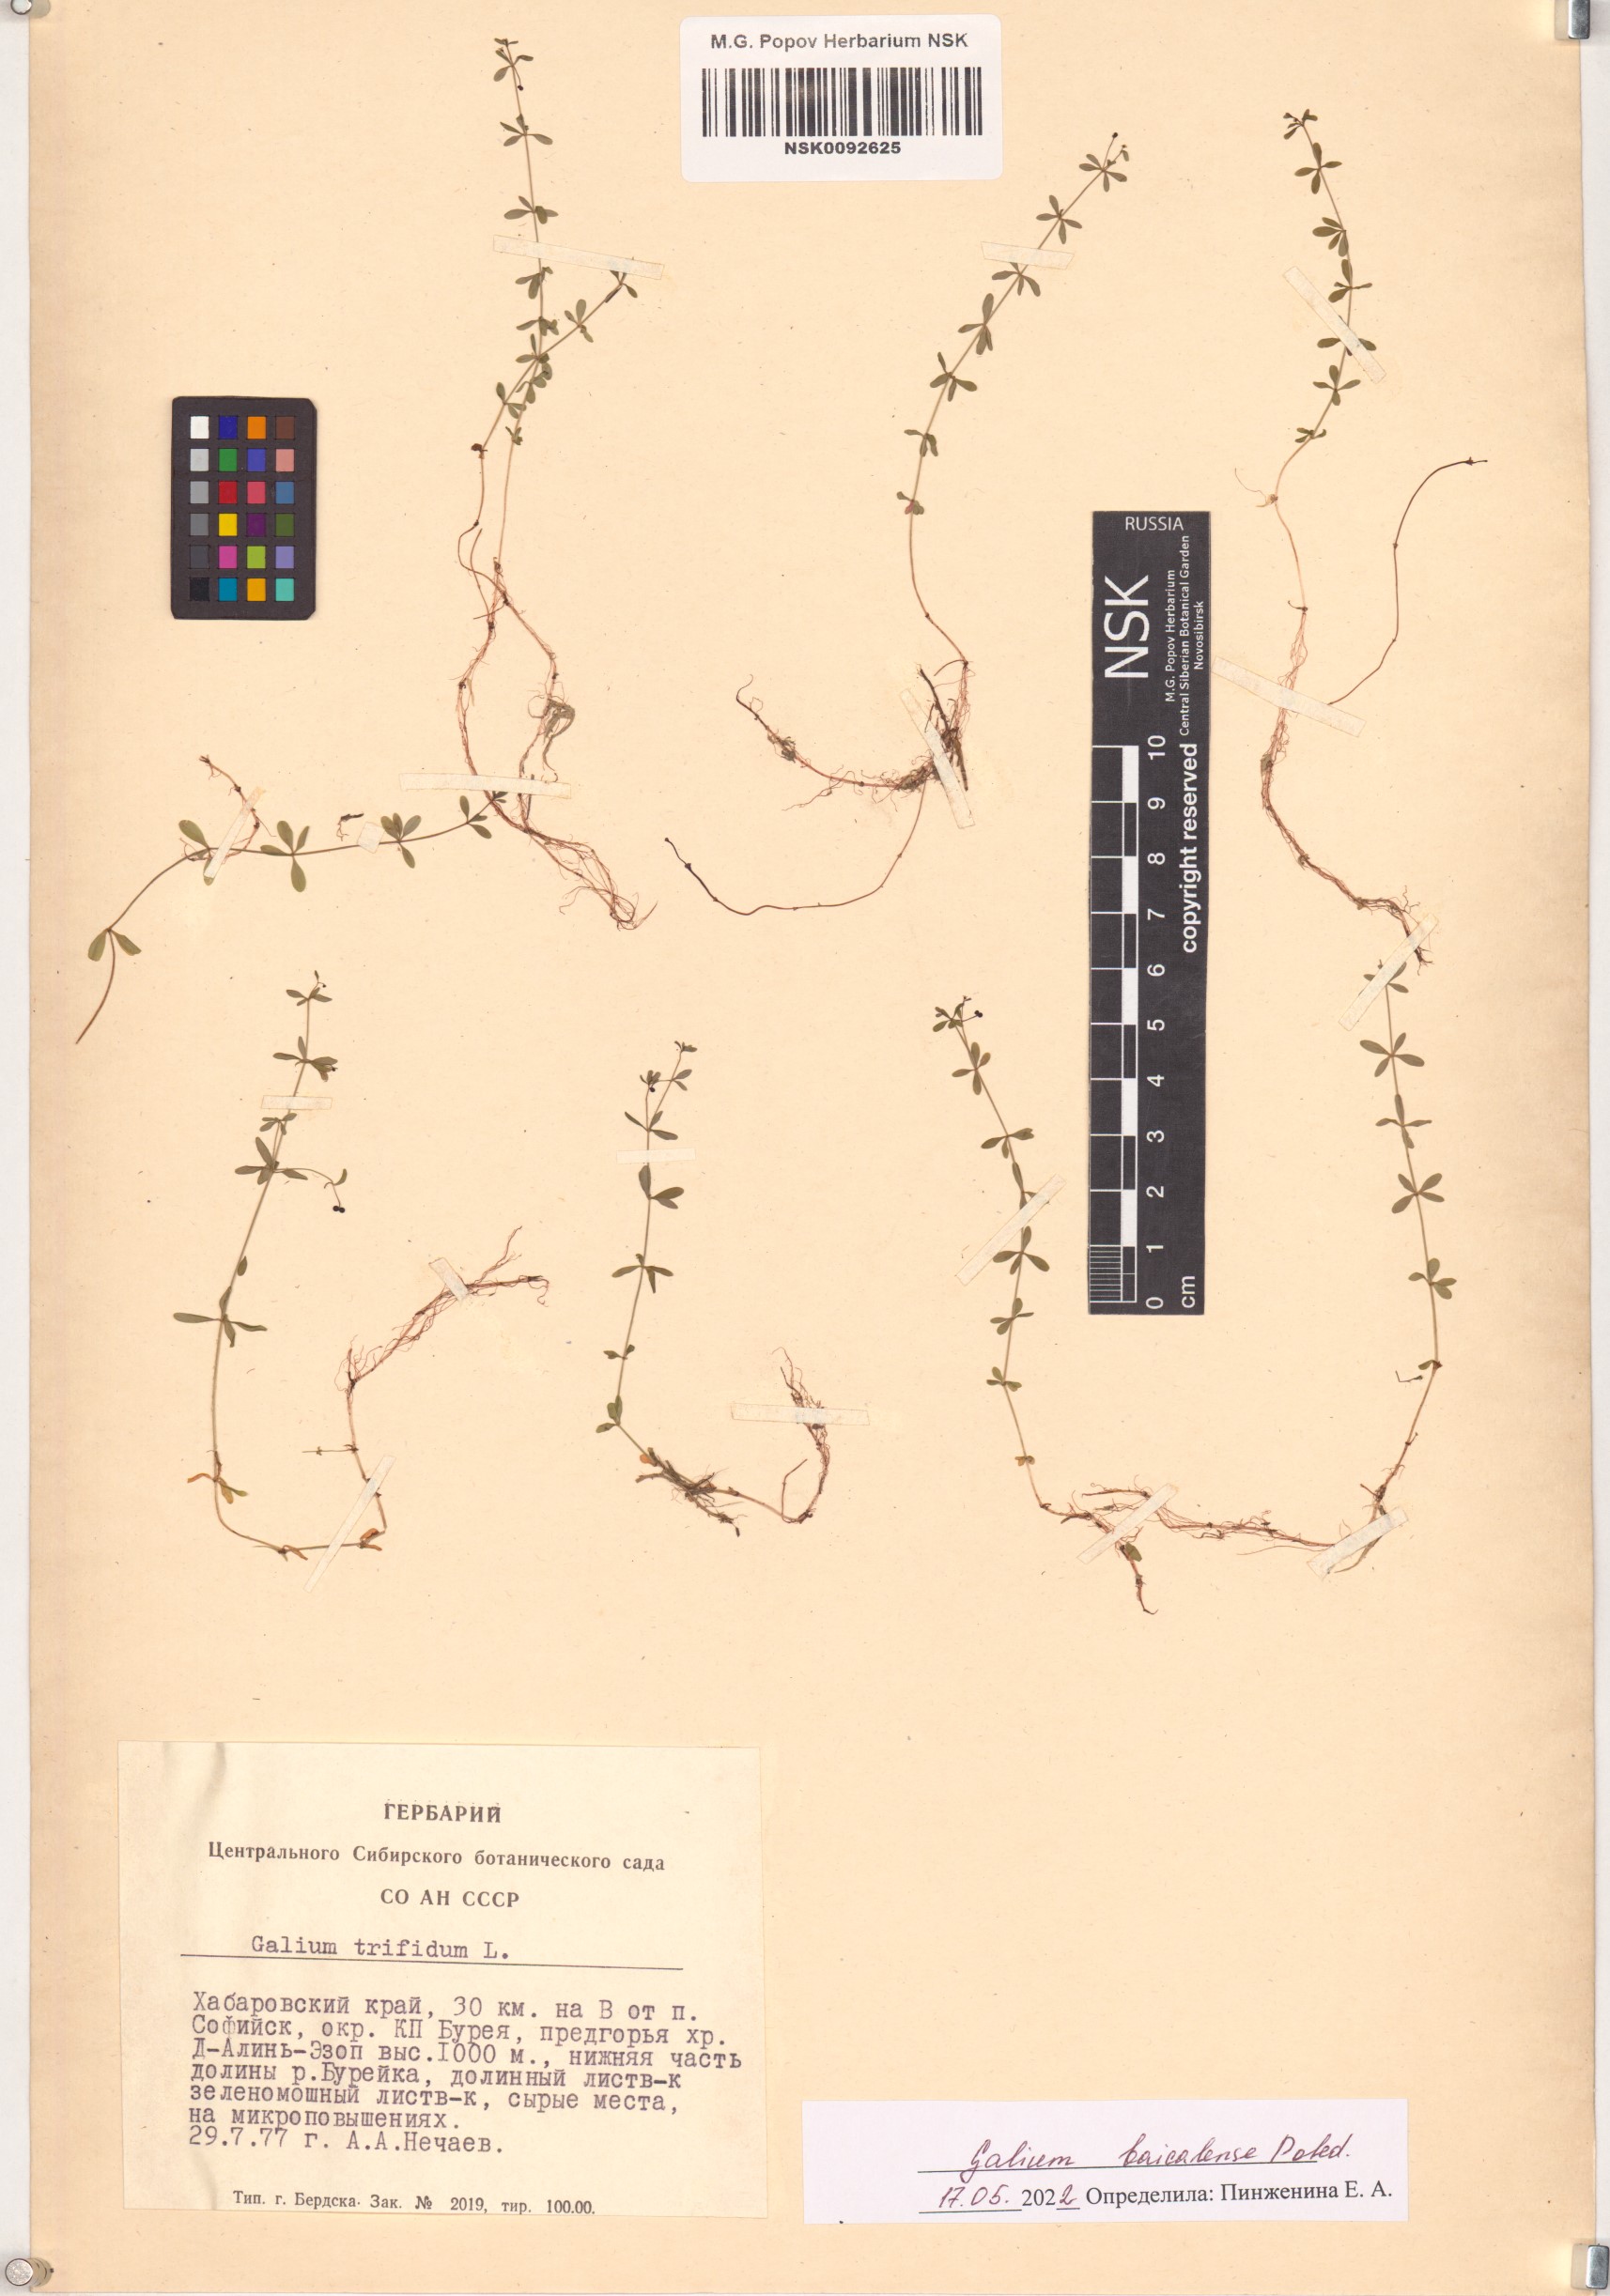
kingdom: Plantae
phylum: Tracheophyta
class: Magnoliopsida
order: Gentianales
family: Rubiaceae
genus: Galium
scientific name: Galium trifidum
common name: Small bedstraw
